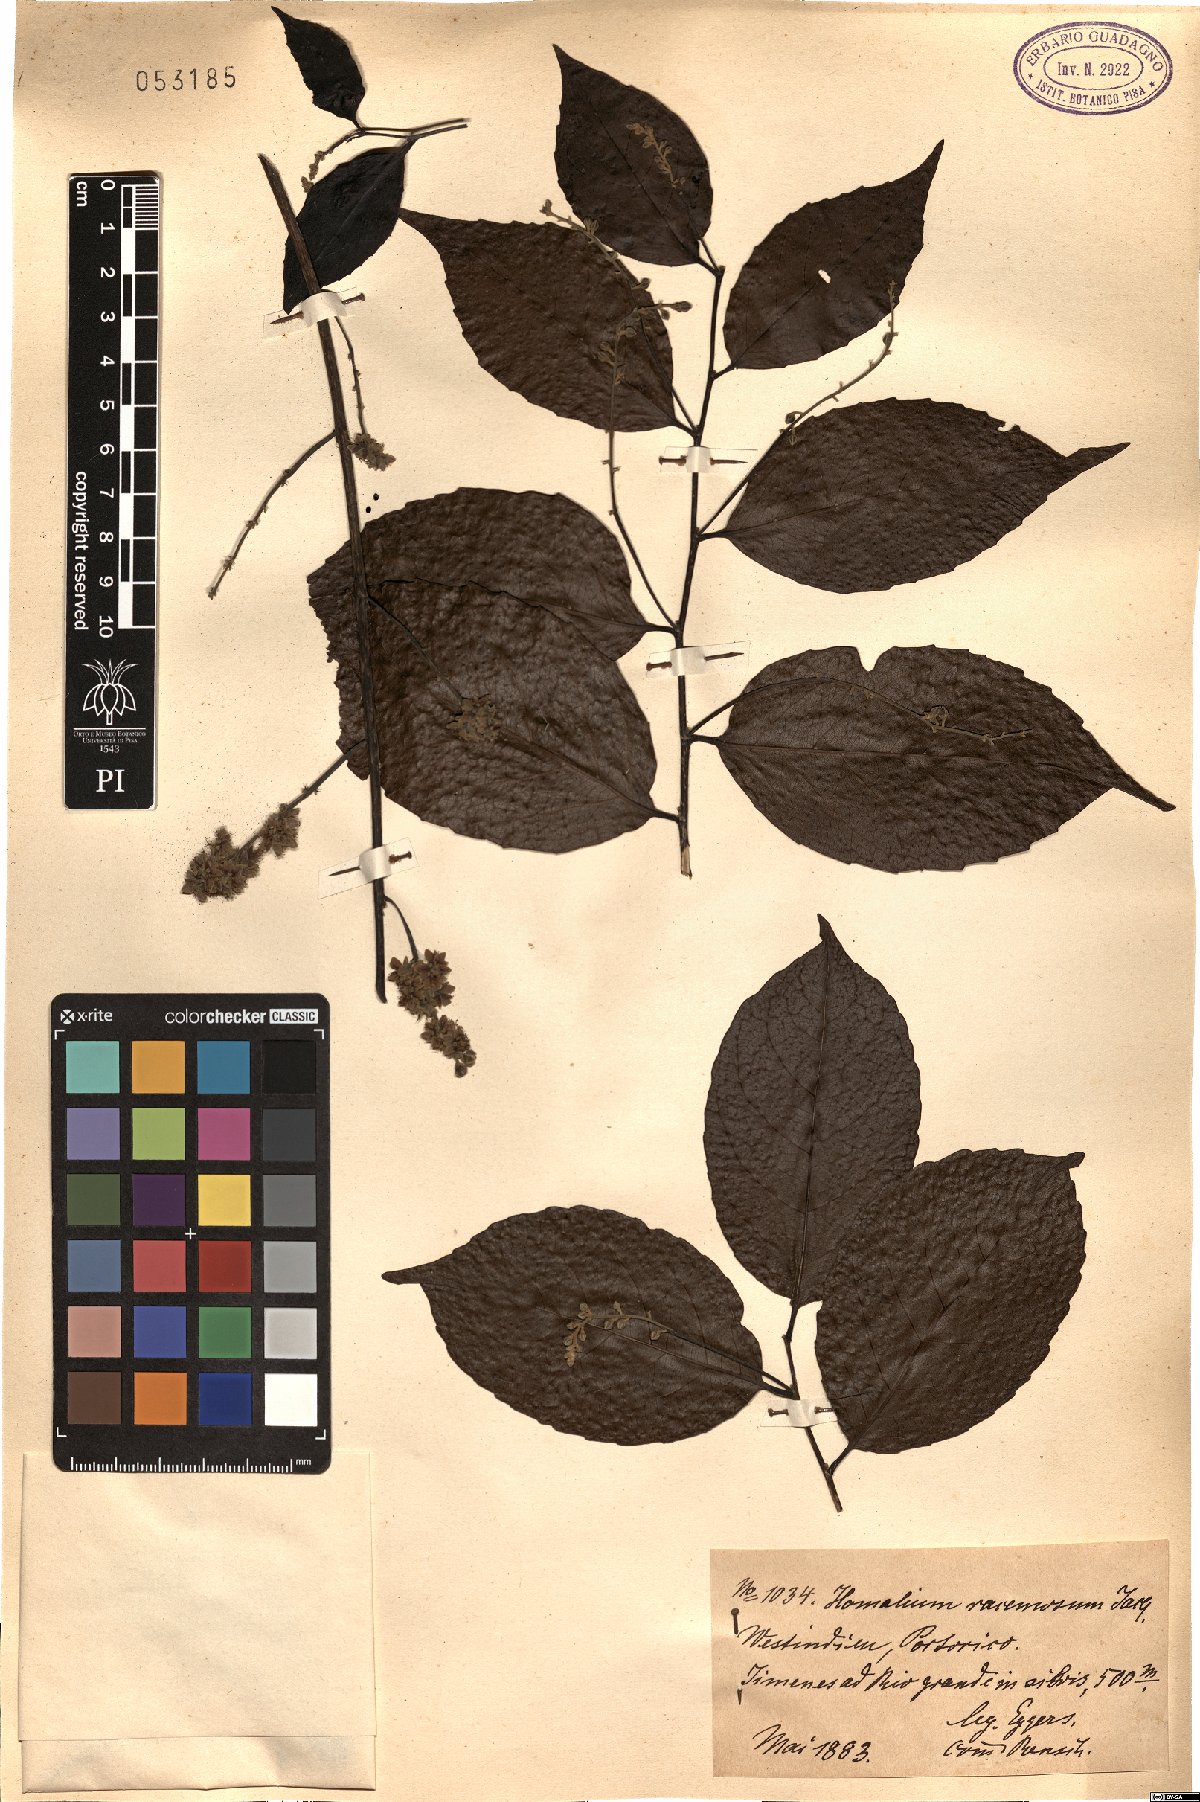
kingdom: Plantae
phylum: Tracheophyta
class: Magnoliopsida
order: Malpighiales
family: Salicaceae
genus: Homalium
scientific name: Homalium racemosum
